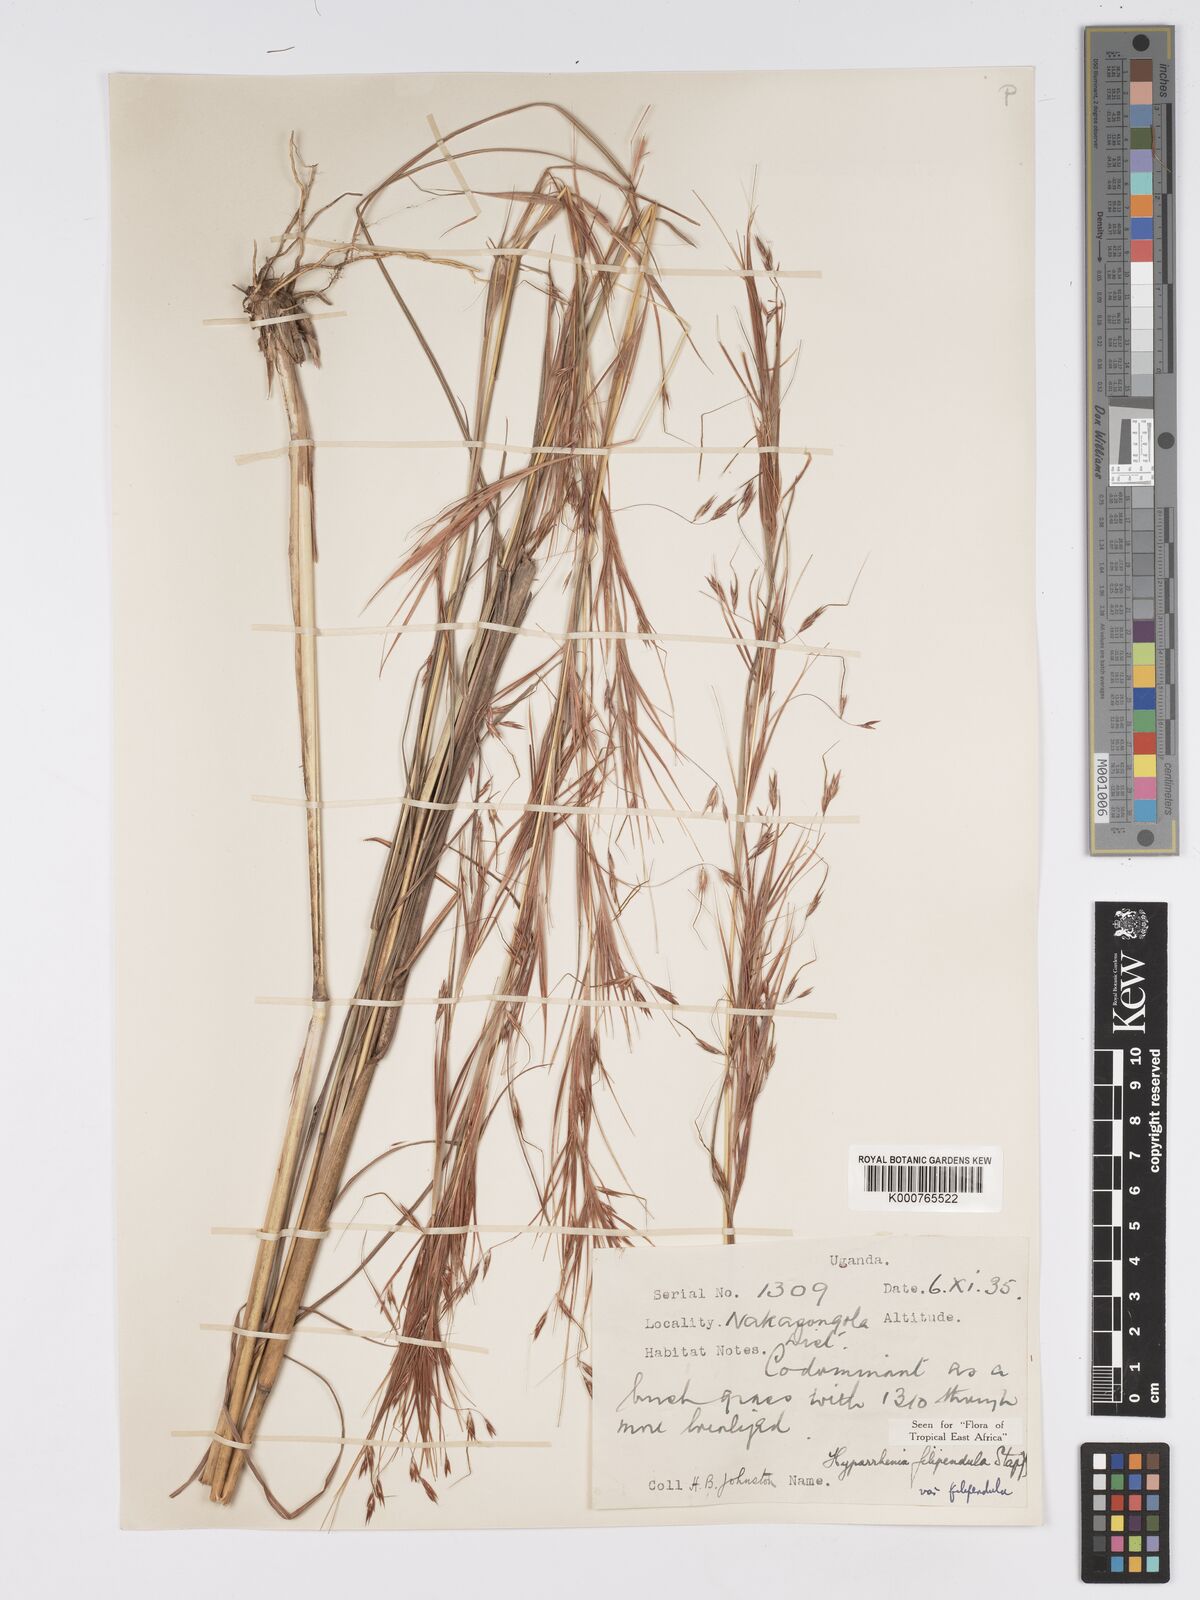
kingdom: Plantae
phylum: Tracheophyta
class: Liliopsida
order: Poales
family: Poaceae
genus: Hyparrhenia
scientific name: Hyparrhenia filipendula
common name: Tambookie grass
